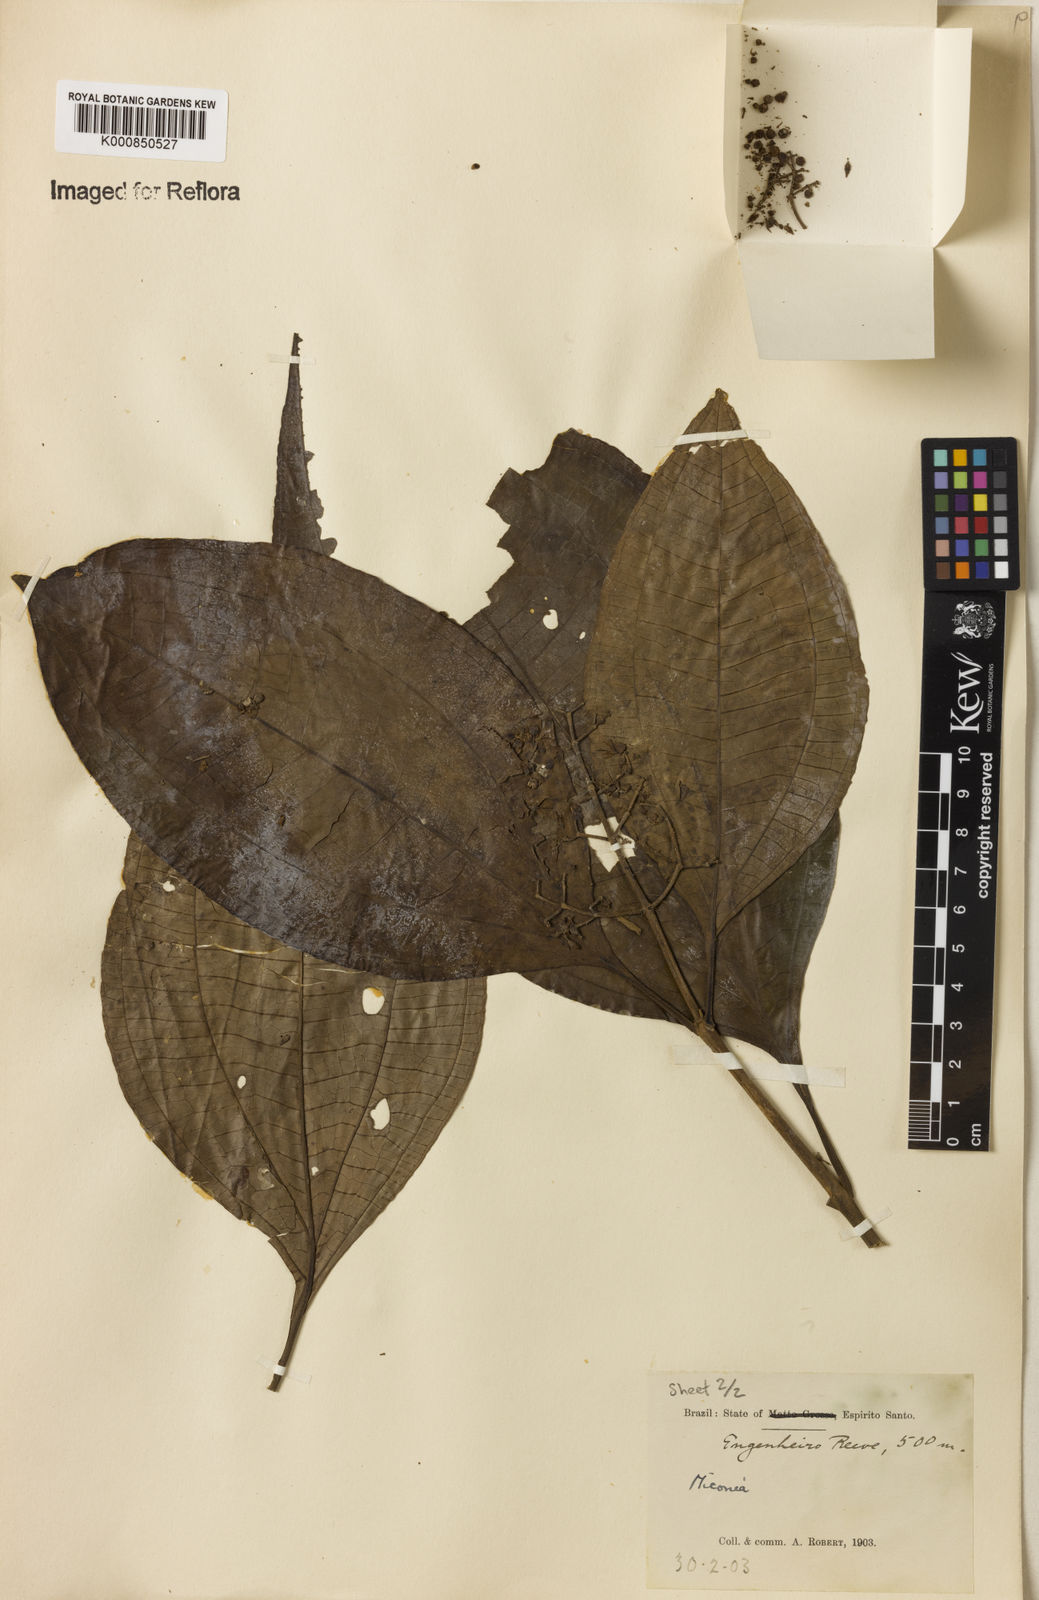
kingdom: Plantae
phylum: Tracheophyta
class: Magnoliopsida
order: Myrtales
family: Melastomataceae
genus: Miconia
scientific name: Miconia
